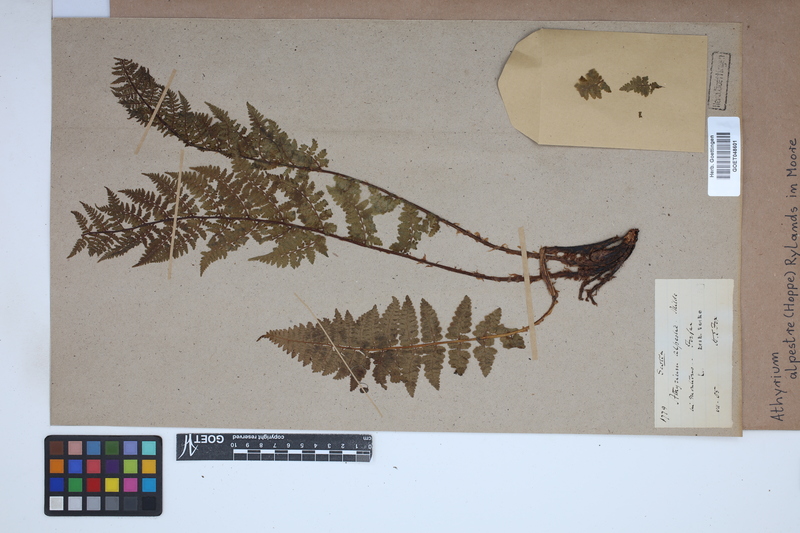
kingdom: Plantae
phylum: Tracheophyta
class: Polypodiopsida
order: Polypodiales
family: Athyriaceae
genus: Pseudathyrium
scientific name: Pseudathyrium alpestre
